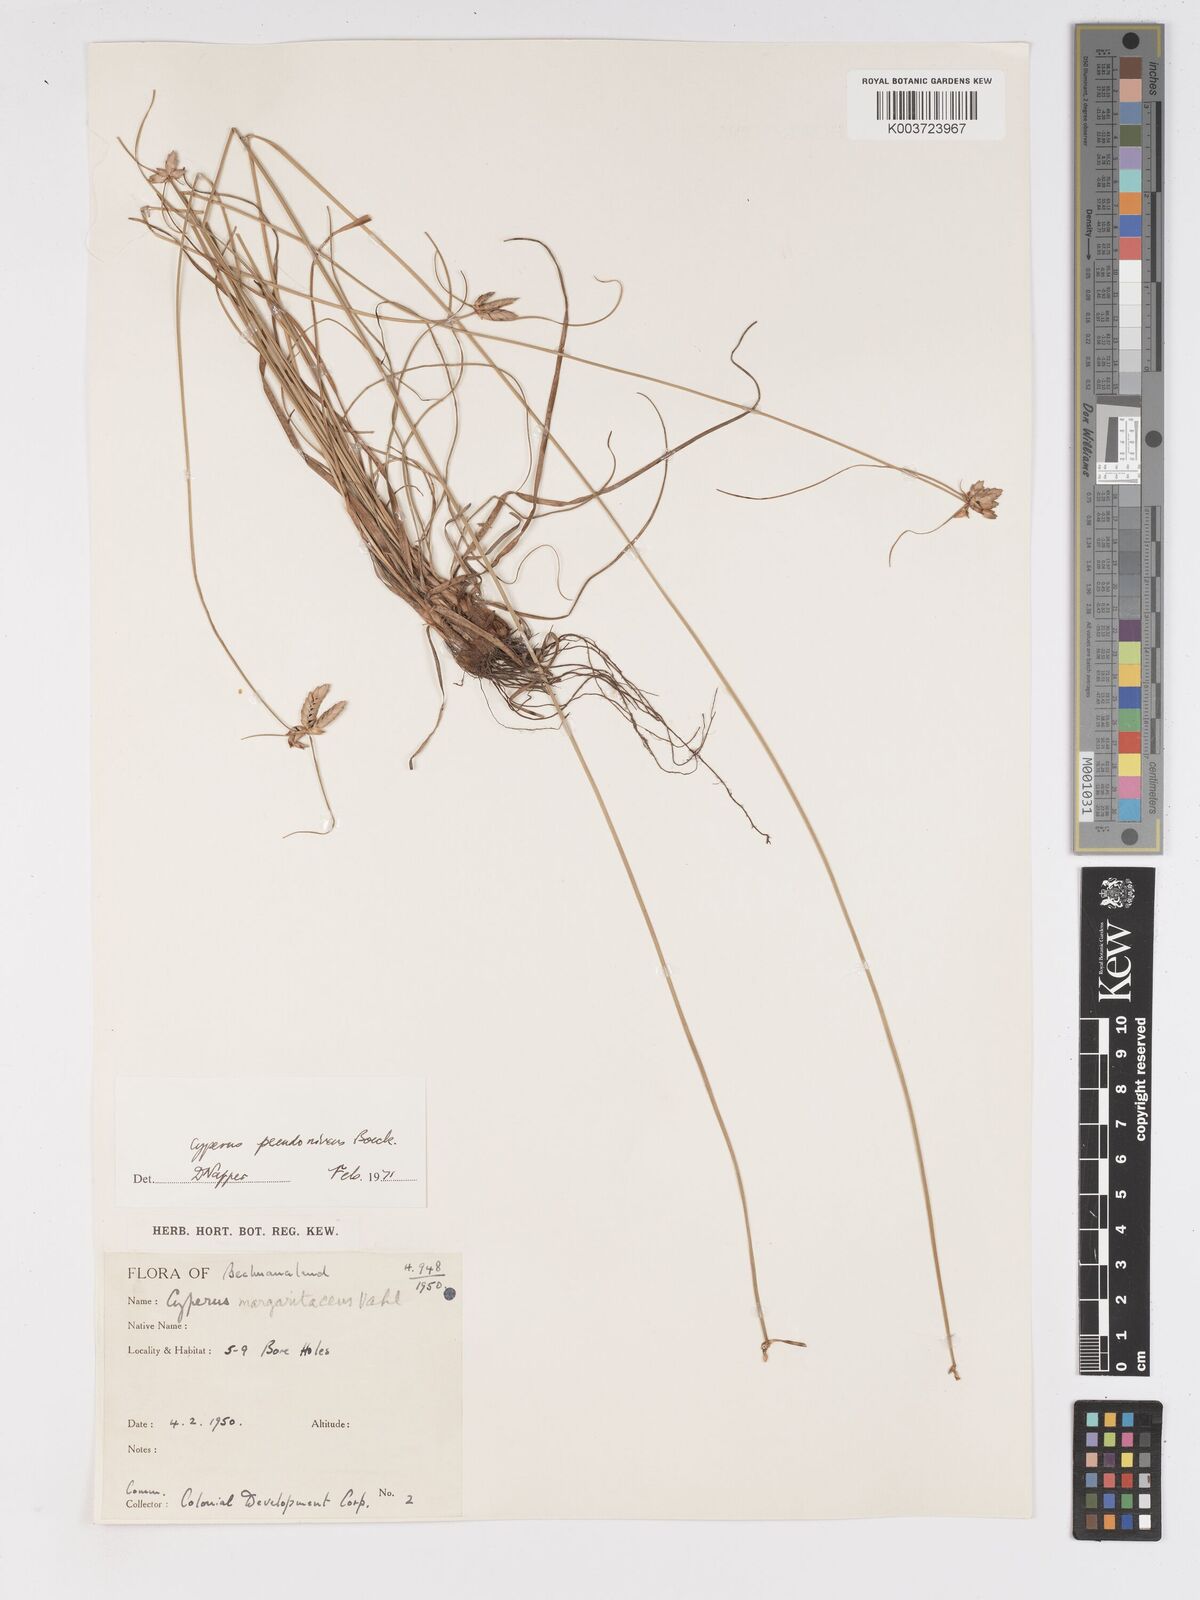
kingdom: Plantae
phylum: Tracheophyta
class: Liliopsida
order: Poales
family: Cyperaceae
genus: Cyperus
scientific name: Cyperus margaritaceus
